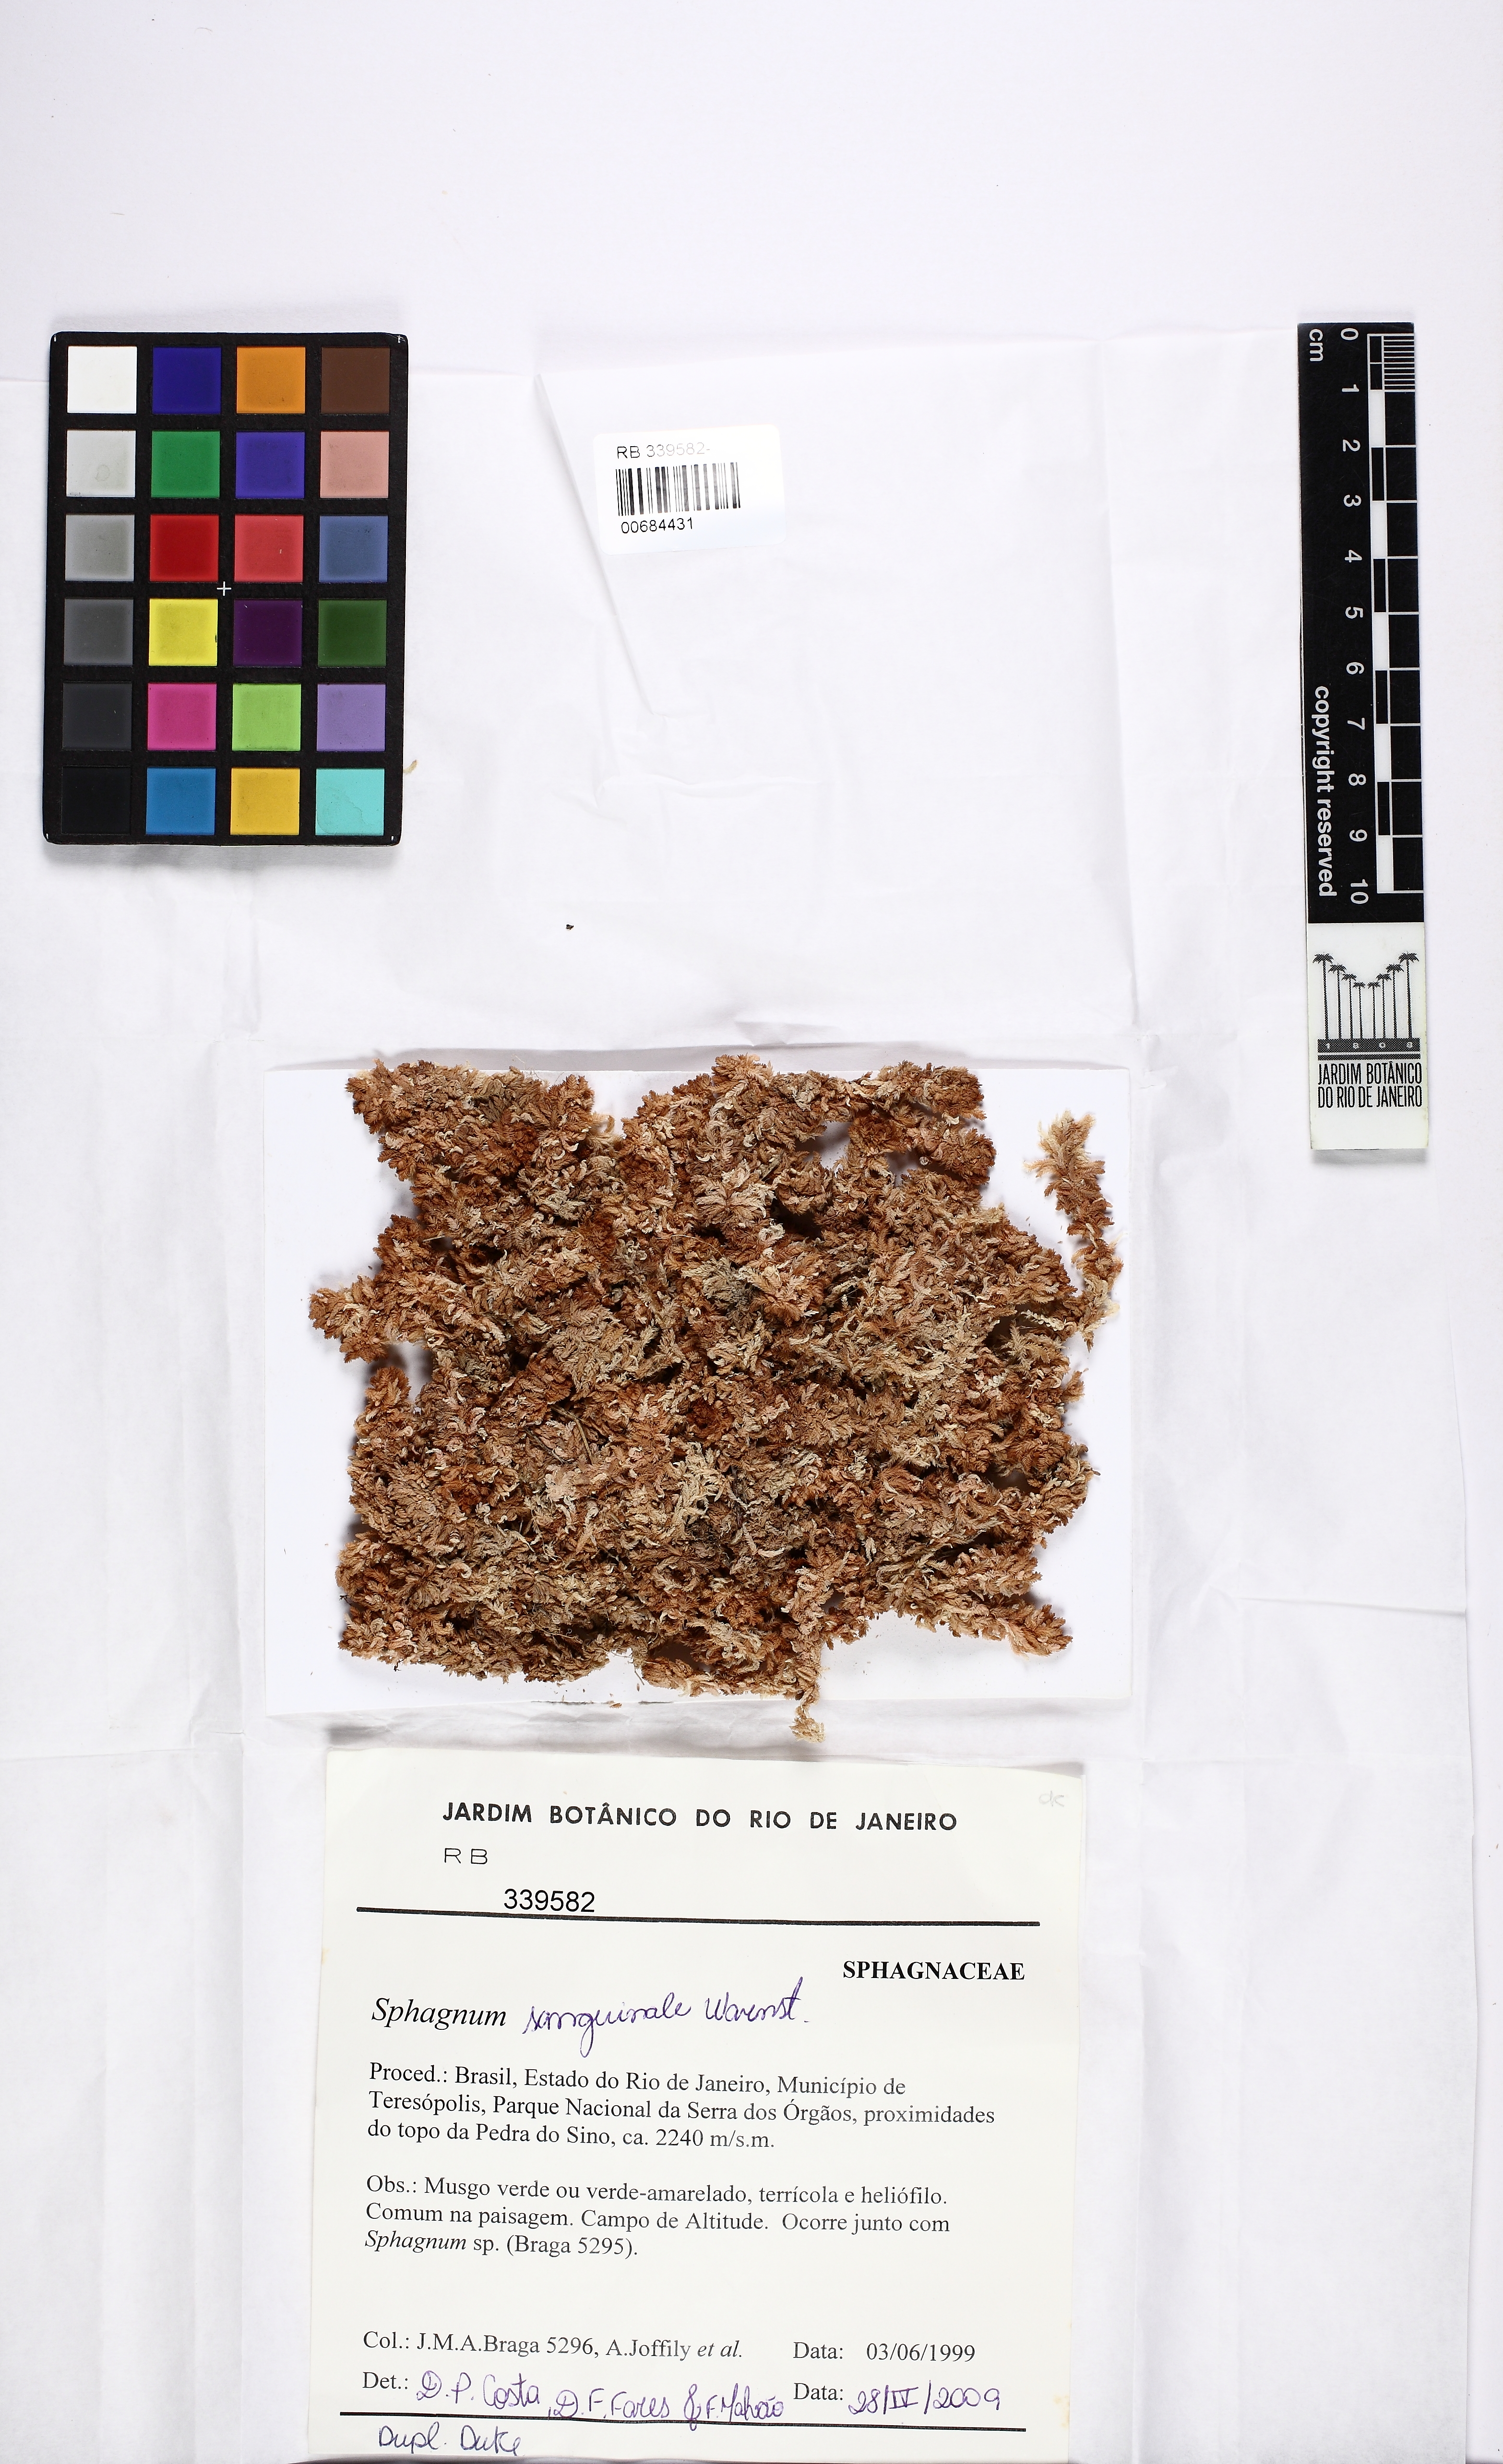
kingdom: Plantae
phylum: Bryophyta
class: Sphagnopsida
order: Sphagnales
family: Sphagnaceae
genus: Sphagnum
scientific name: Sphagnum sanguinale
